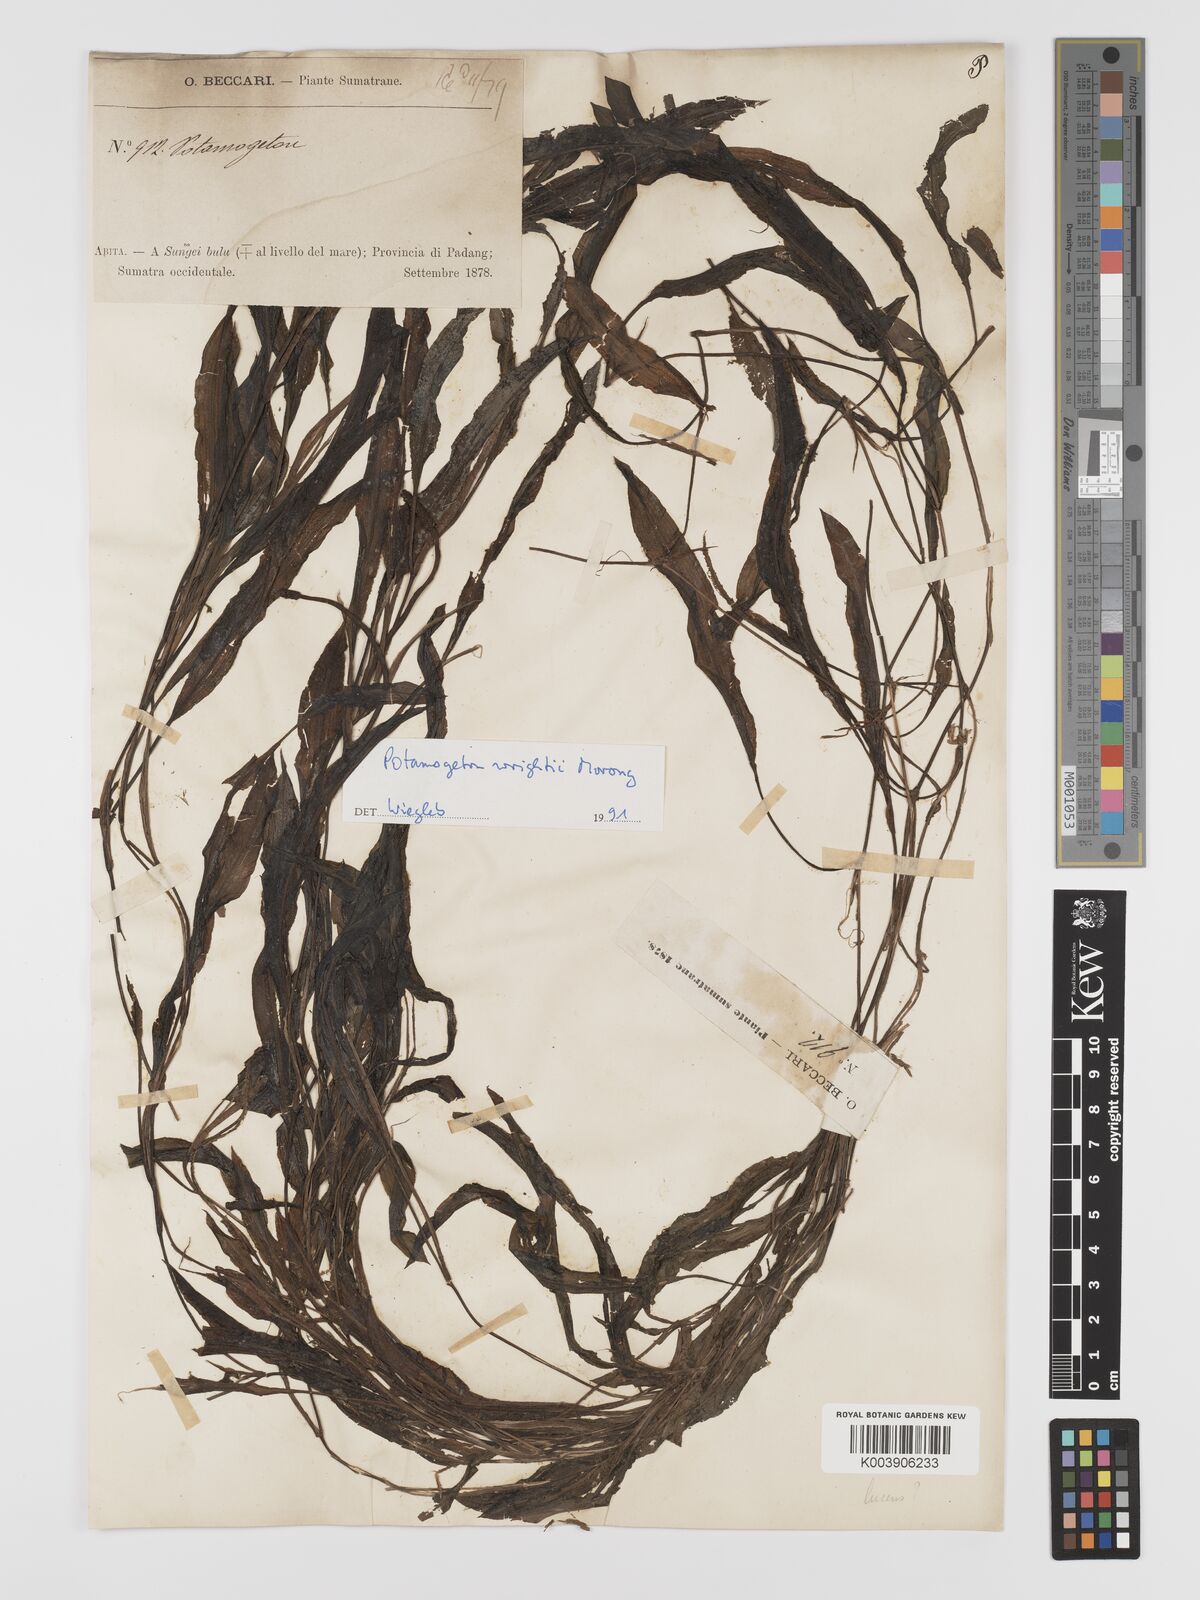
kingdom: Plantae
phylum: Tracheophyta
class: Liliopsida
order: Alismatales
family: Potamogetonaceae
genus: Potamogeton
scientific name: Potamogeton wrightii
